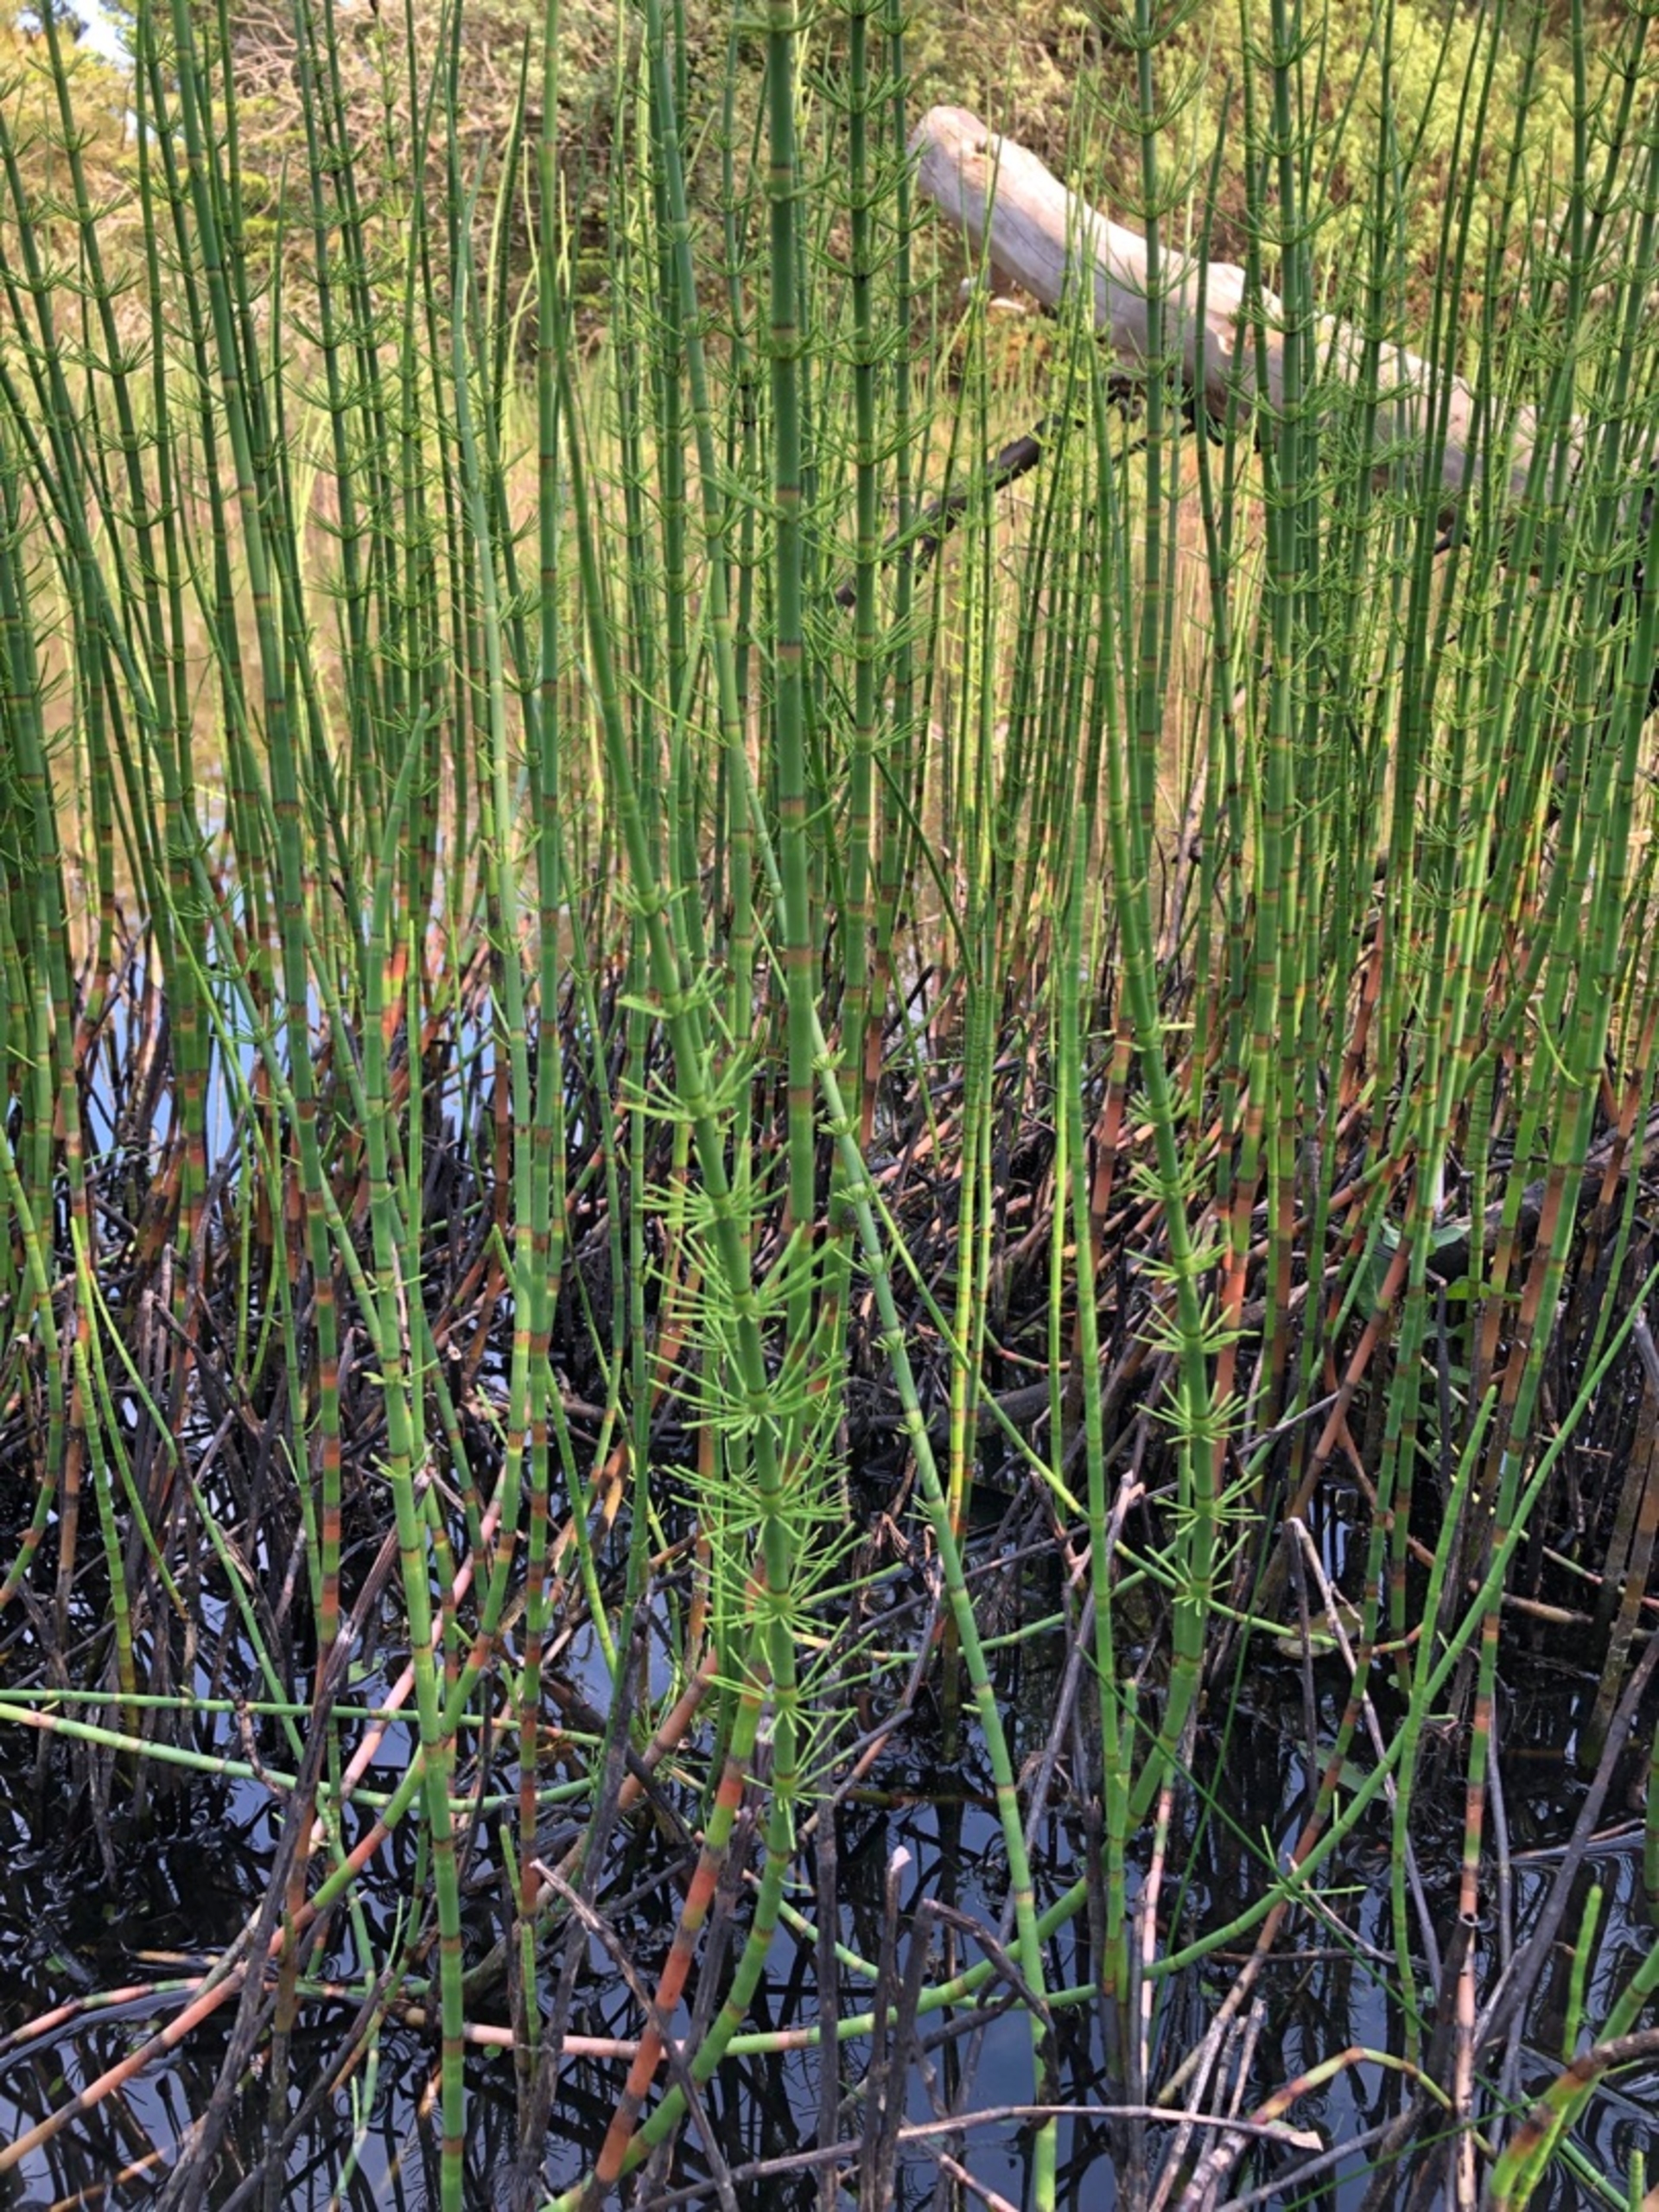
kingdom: Plantae
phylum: Tracheophyta
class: Polypodiopsida
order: Equisetales
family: Equisetaceae
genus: Equisetum
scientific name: Equisetum fluviatile
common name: Dynd-padderok
